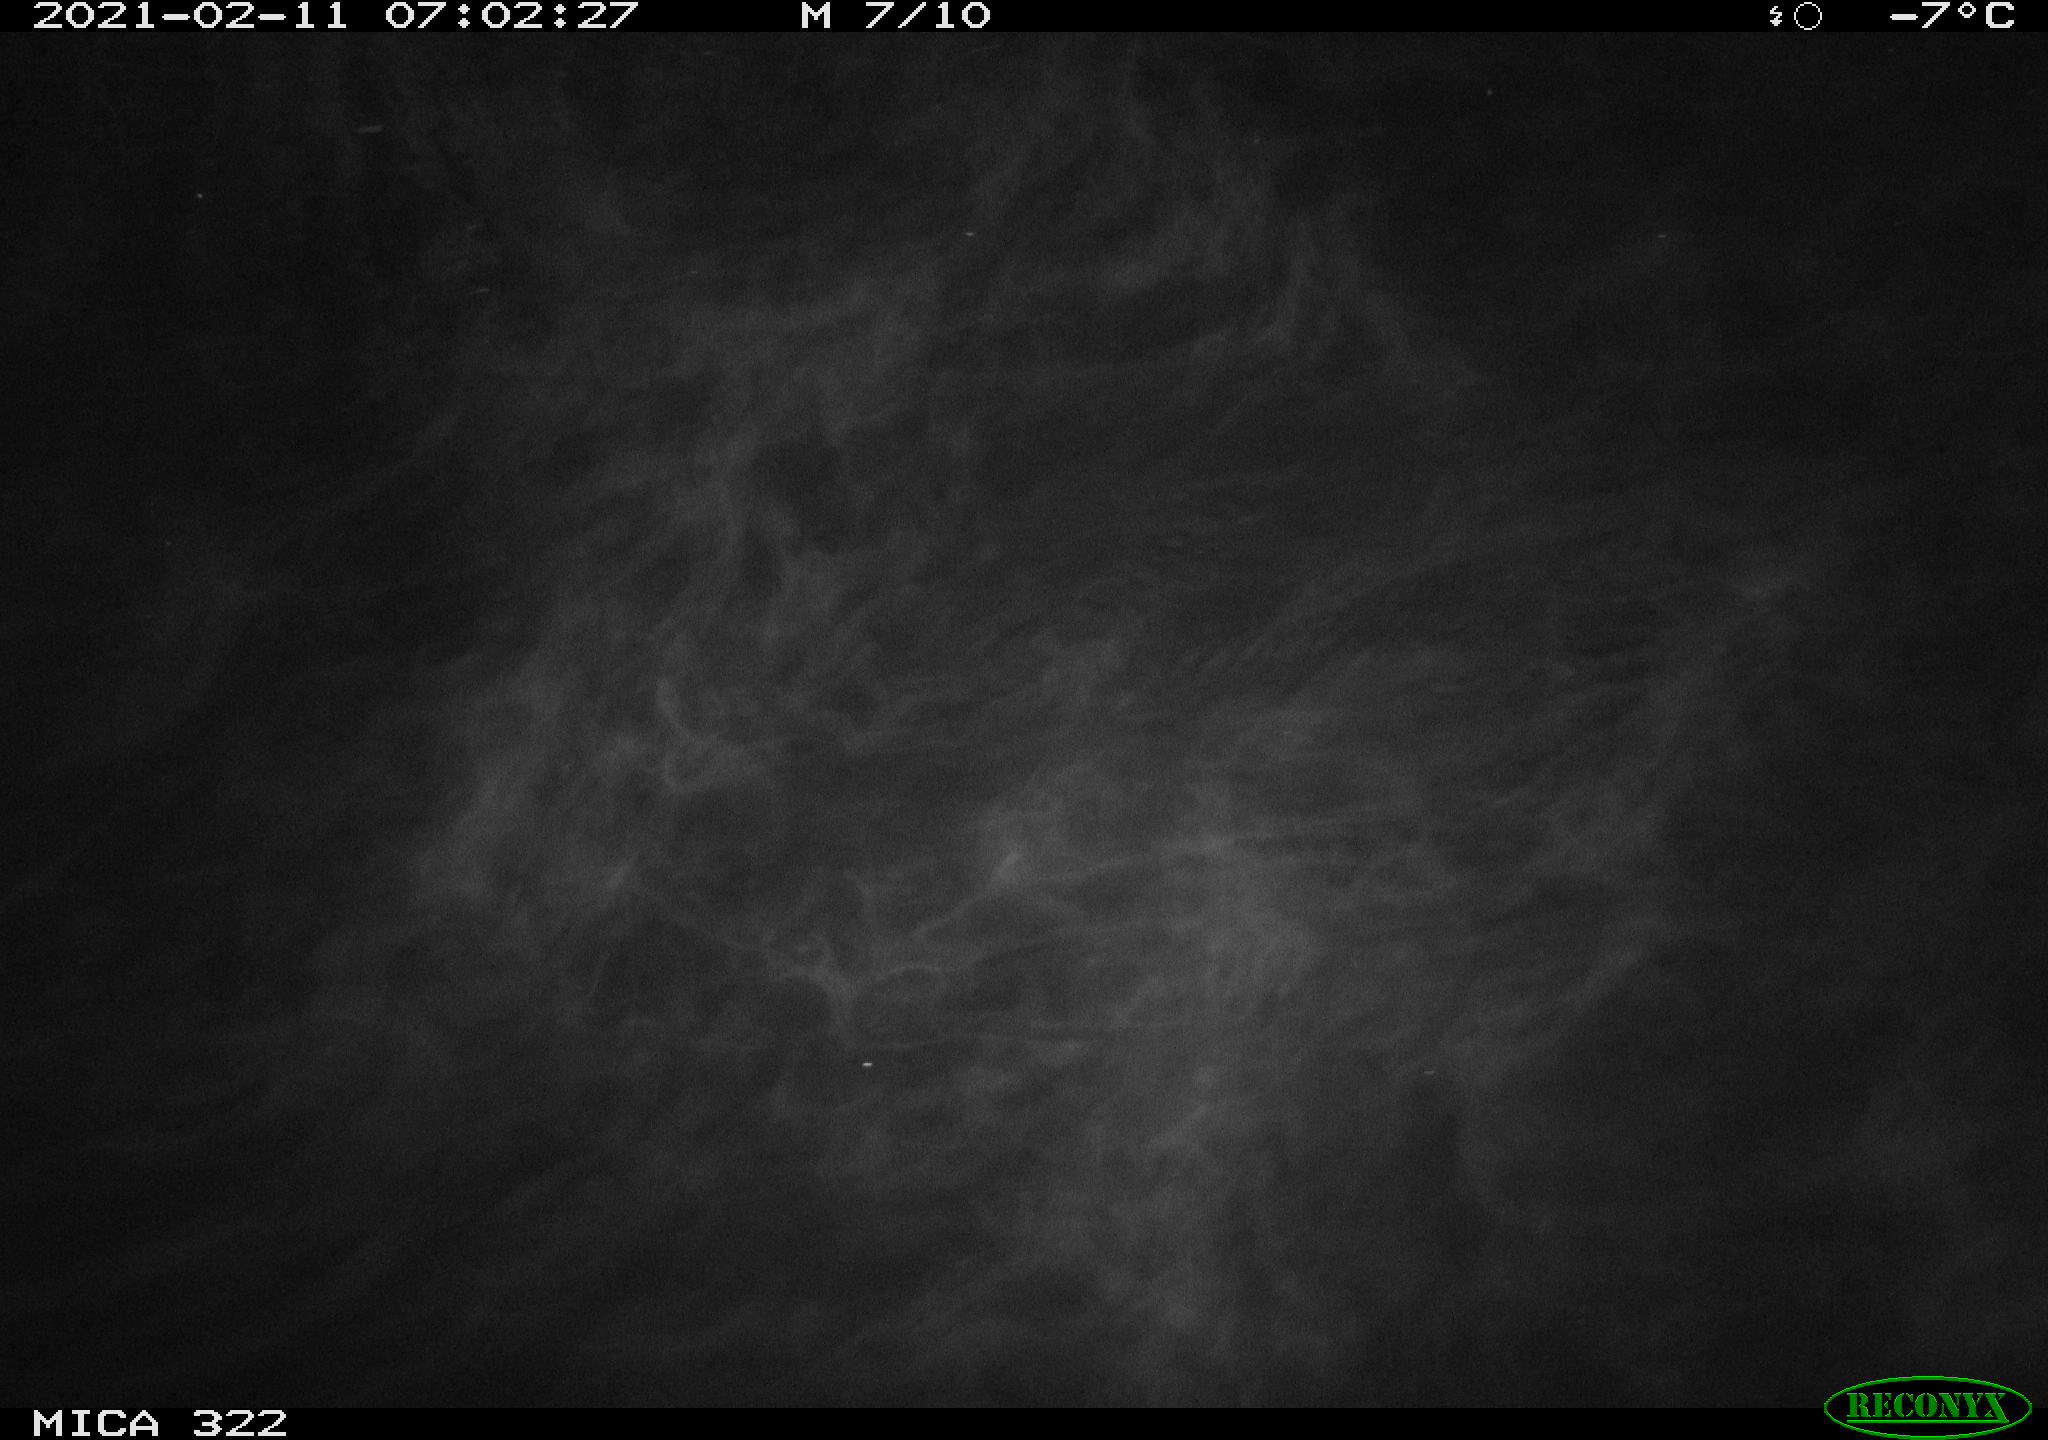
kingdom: Animalia
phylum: Chordata
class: Aves
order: Anseriformes
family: Anatidae
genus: Anas
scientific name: Anas platyrhynchos
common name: Mallard
